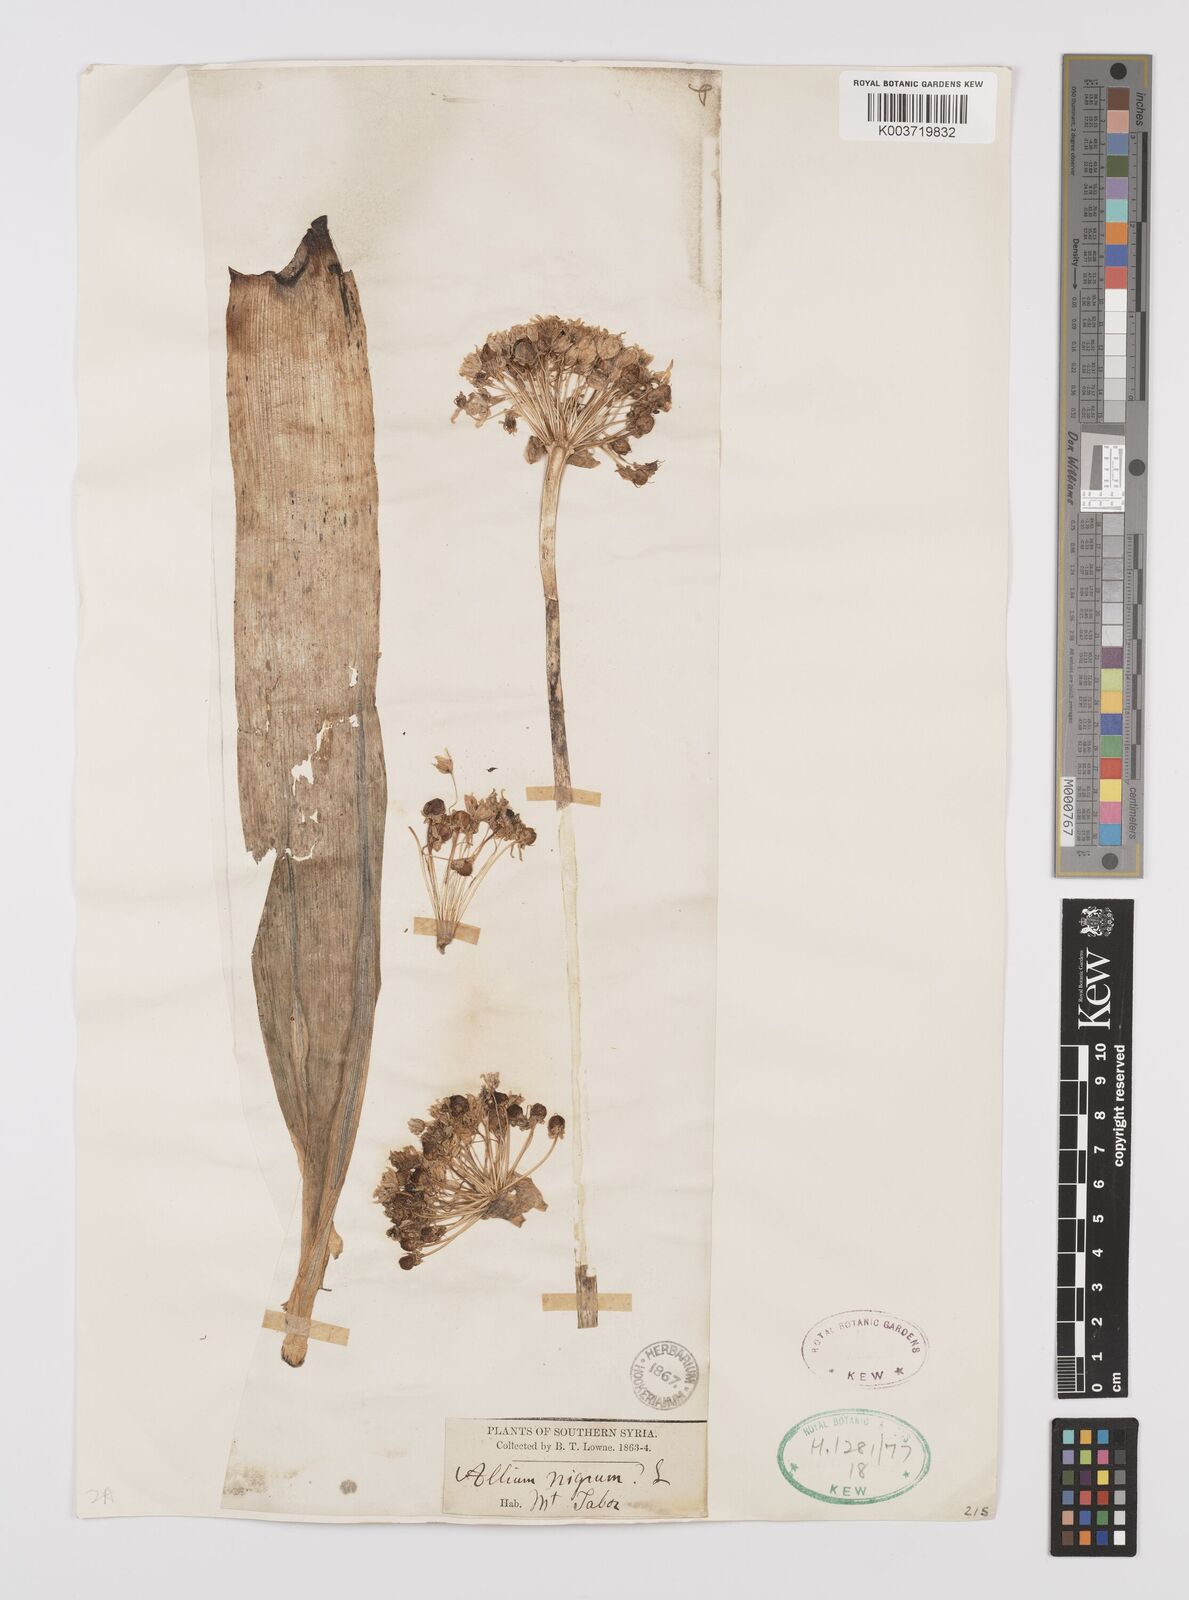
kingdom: Plantae
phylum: Tracheophyta
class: Liliopsida
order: Asparagales
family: Amaryllidaceae
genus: Allium
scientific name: Allium nigrum
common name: Black garlic
